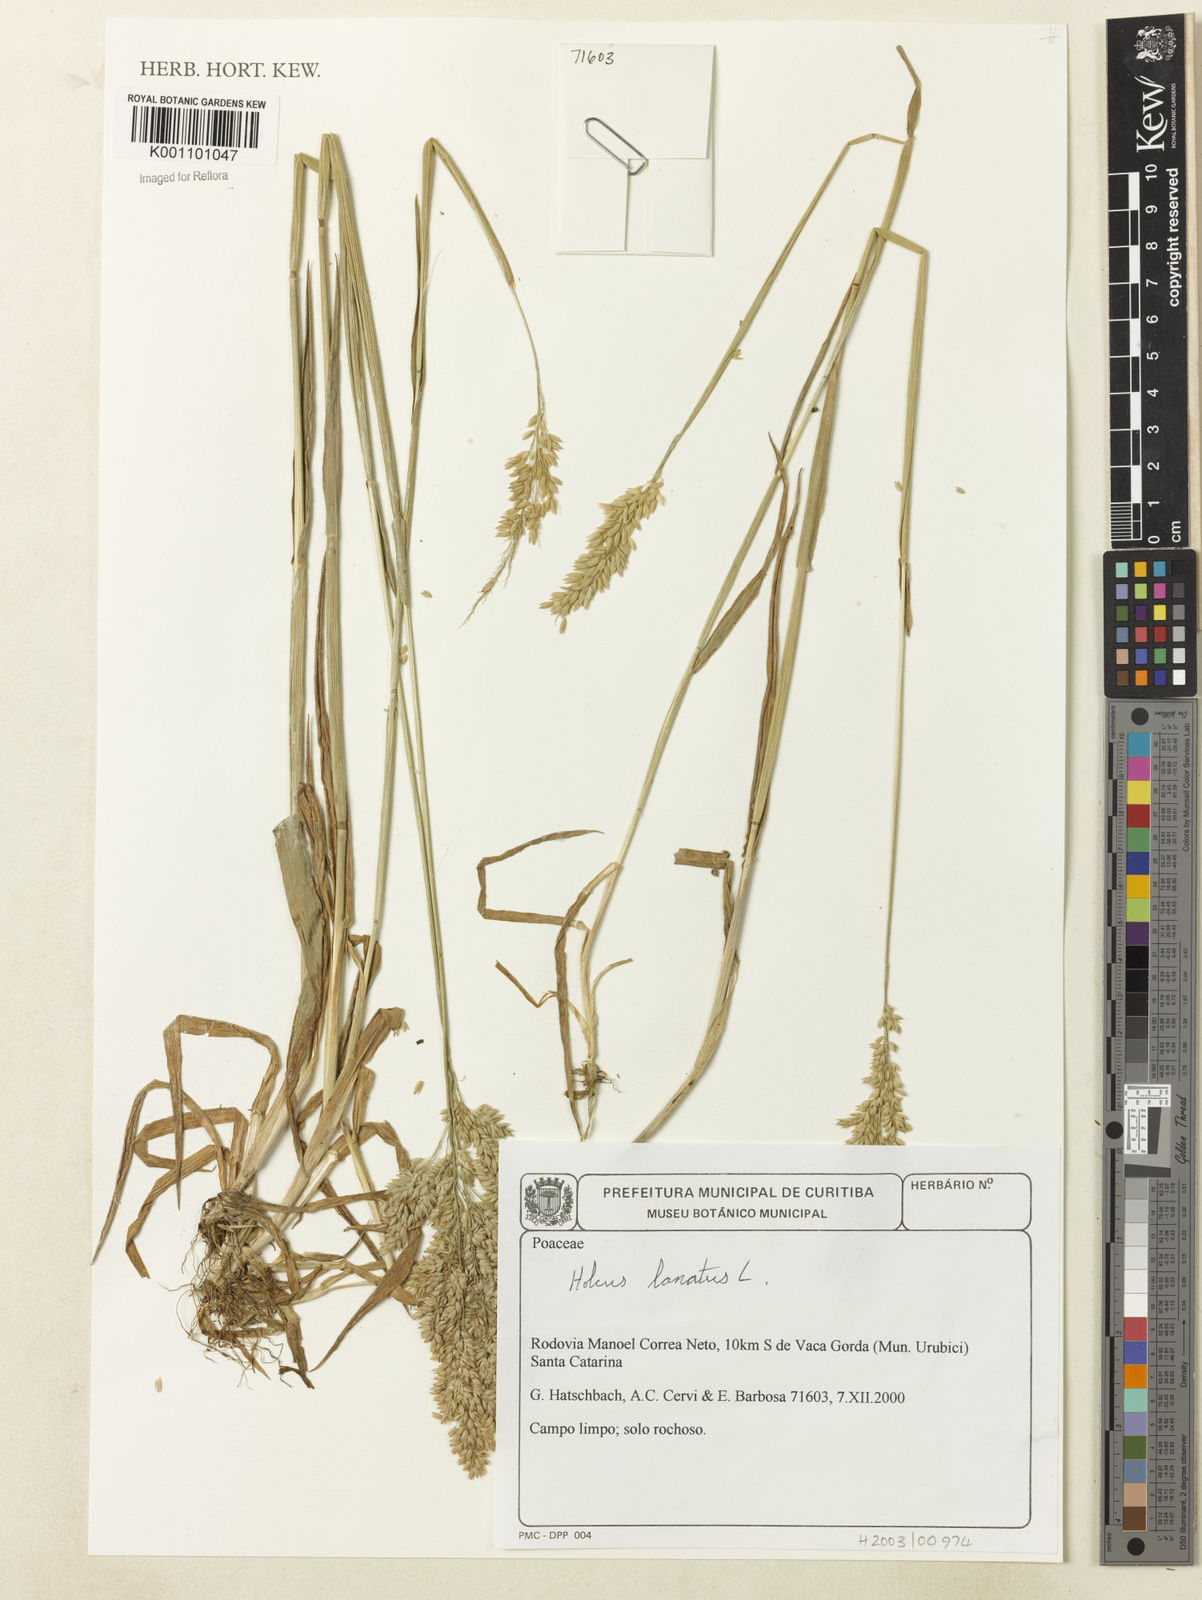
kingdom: Plantae
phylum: Tracheophyta
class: Liliopsida
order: Poales
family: Poaceae
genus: Holcus
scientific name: Holcus lanatus
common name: Yorkshire-fog
